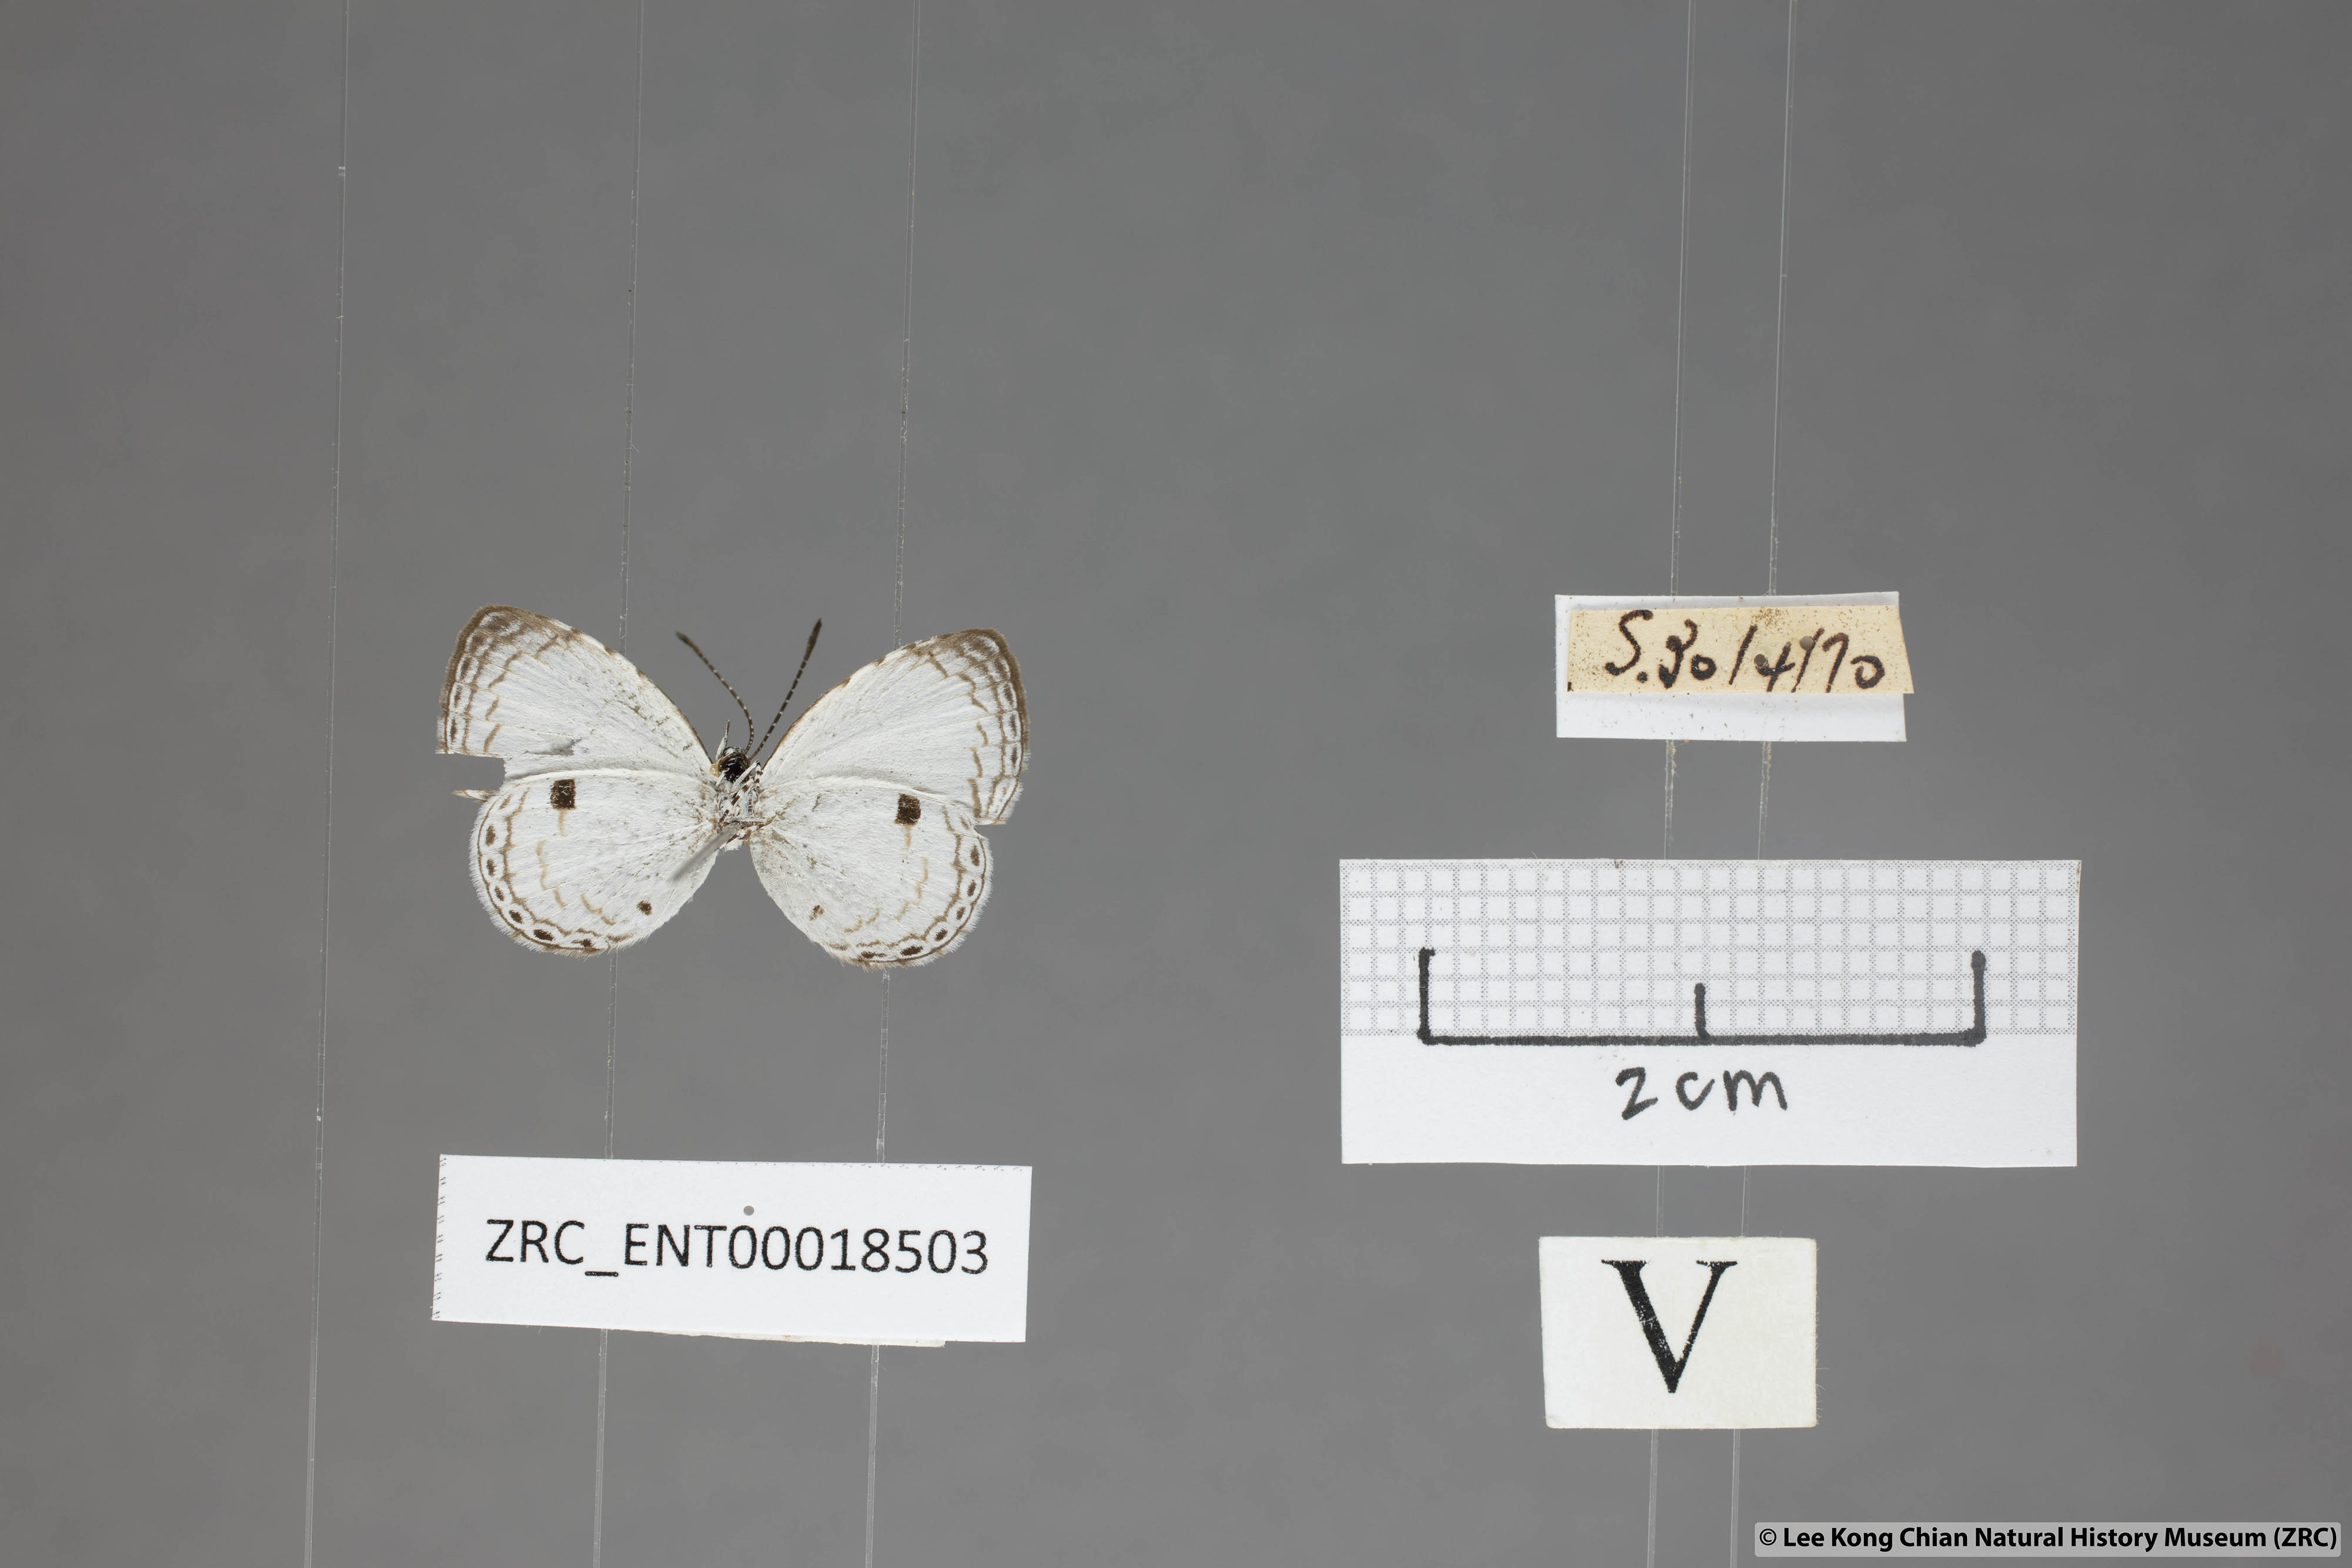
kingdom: Animalia
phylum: Arthropoda
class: Insecta
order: Lepidoptera
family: Lycaenidae
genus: Neopithecops
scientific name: Neopithecops zalmora
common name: Quaker
